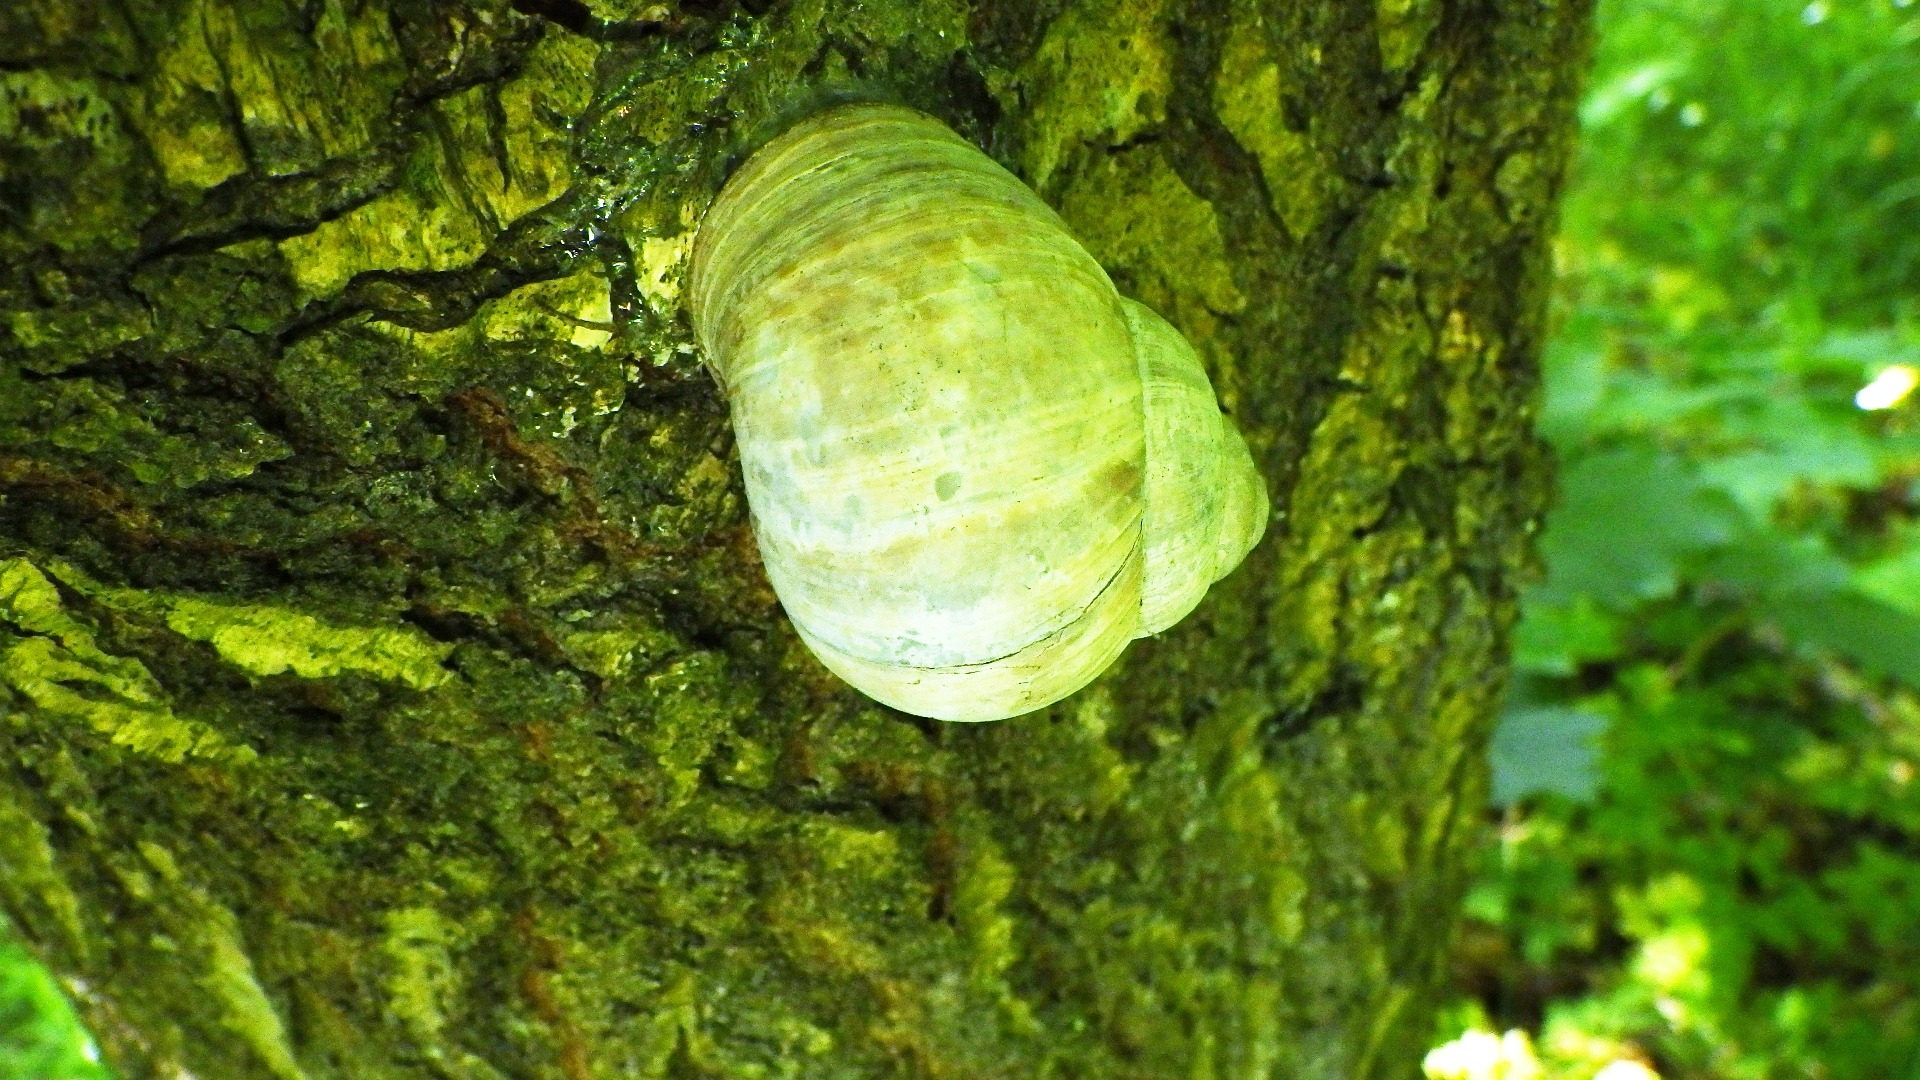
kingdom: Animalia
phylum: Mollusca
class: Gastropoda
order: Stylommatophora
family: Helicidae
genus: Helix
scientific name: Helix pomatia
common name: Vinbjergsnegl
